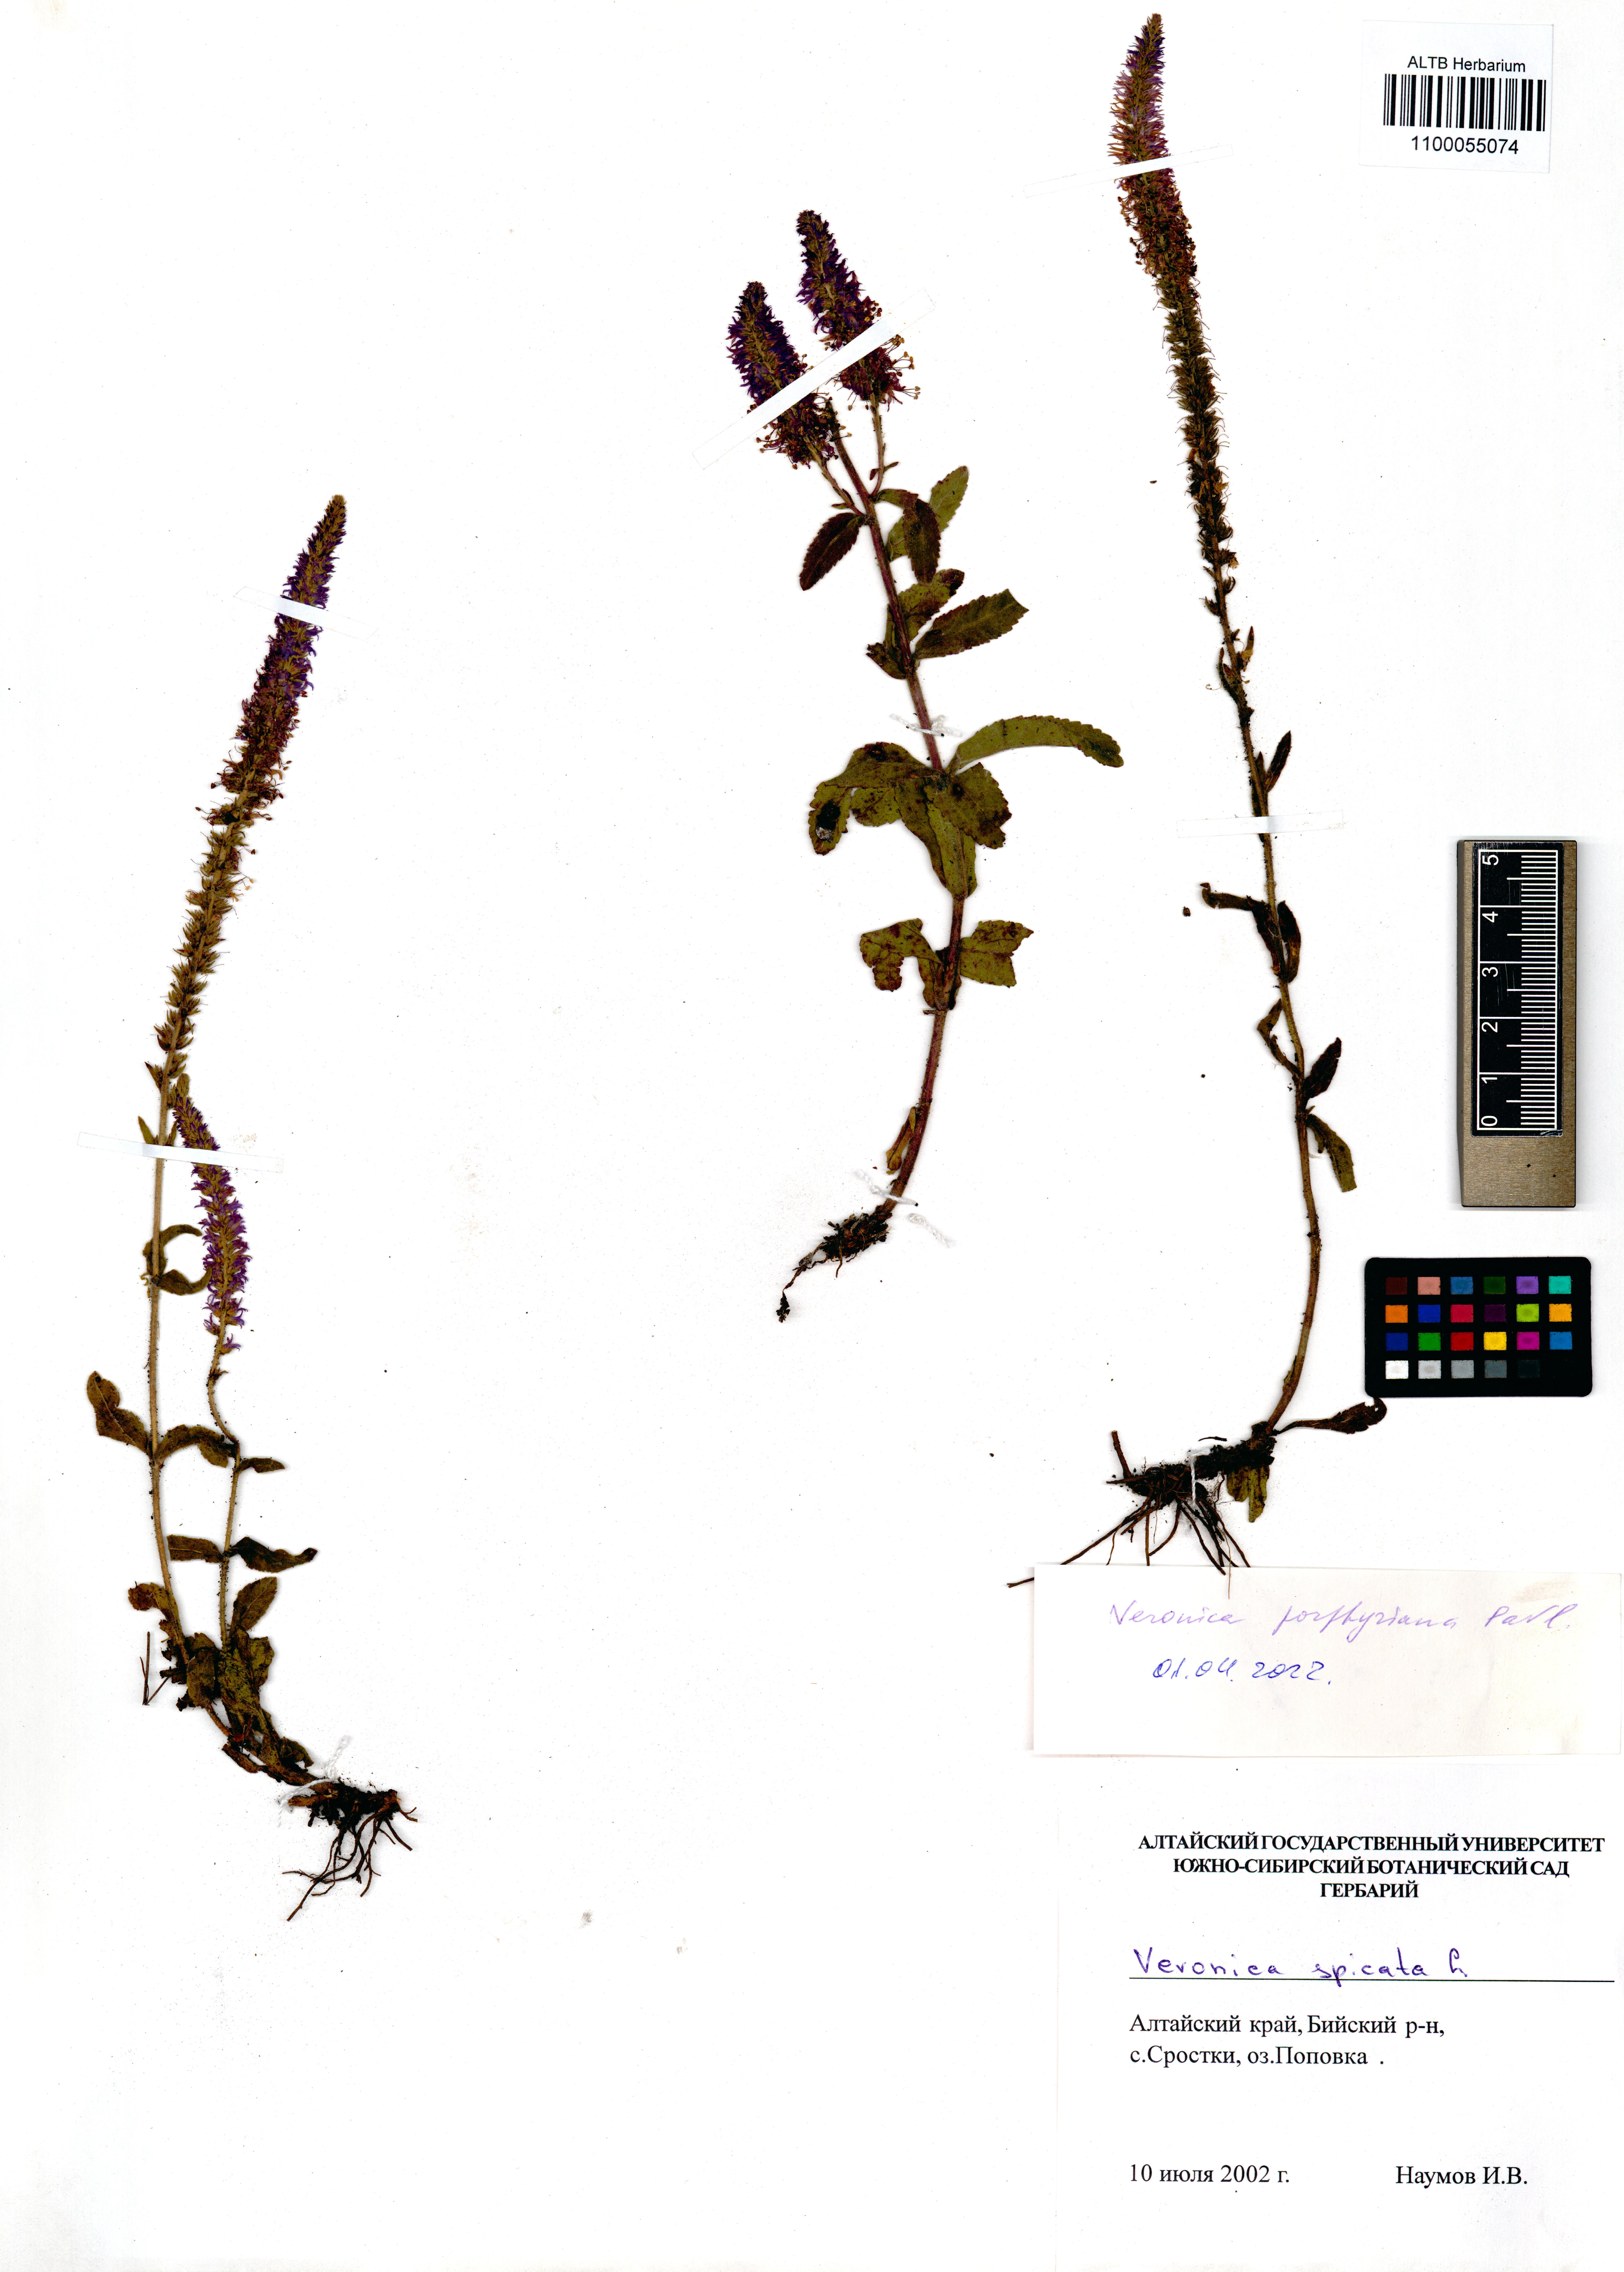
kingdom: Plantae
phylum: Tracheophyta
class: Magnoliopsida
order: Lamiales
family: Plantaginaceae
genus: Veronica
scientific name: Veronica porphyriana
